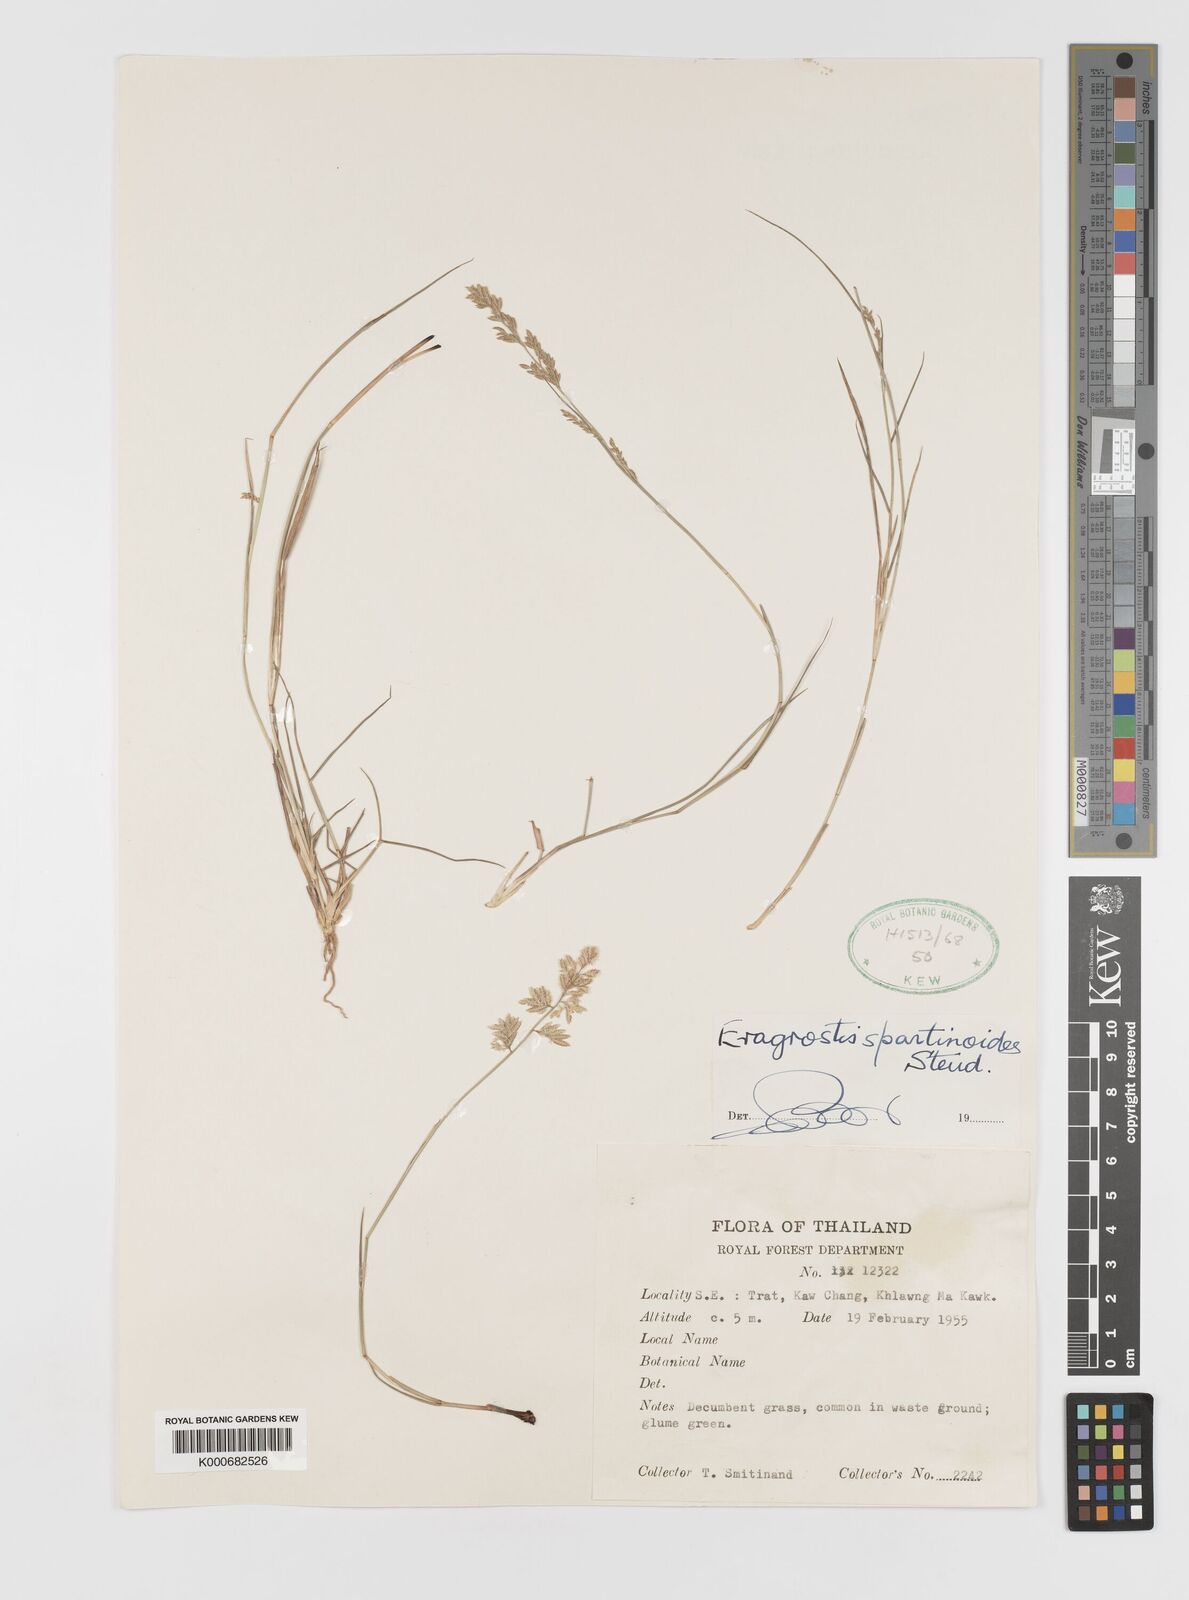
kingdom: Plantae
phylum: Tracheophyta
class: Liliopsida
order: Poales
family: Poaceae
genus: Eragrostis
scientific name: Eragrostis subsecunda
